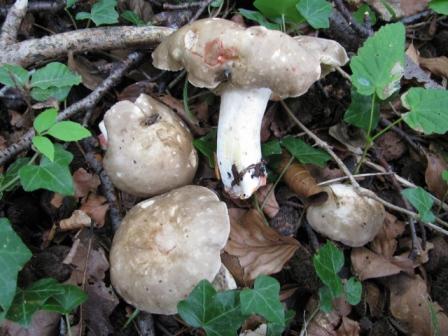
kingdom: Fungi
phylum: Basidiomycota
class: Agaricomycetes
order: Russulales
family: Russulaceae
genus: Lactarius
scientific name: Lactarius acris
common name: rosamælket mælkehat
